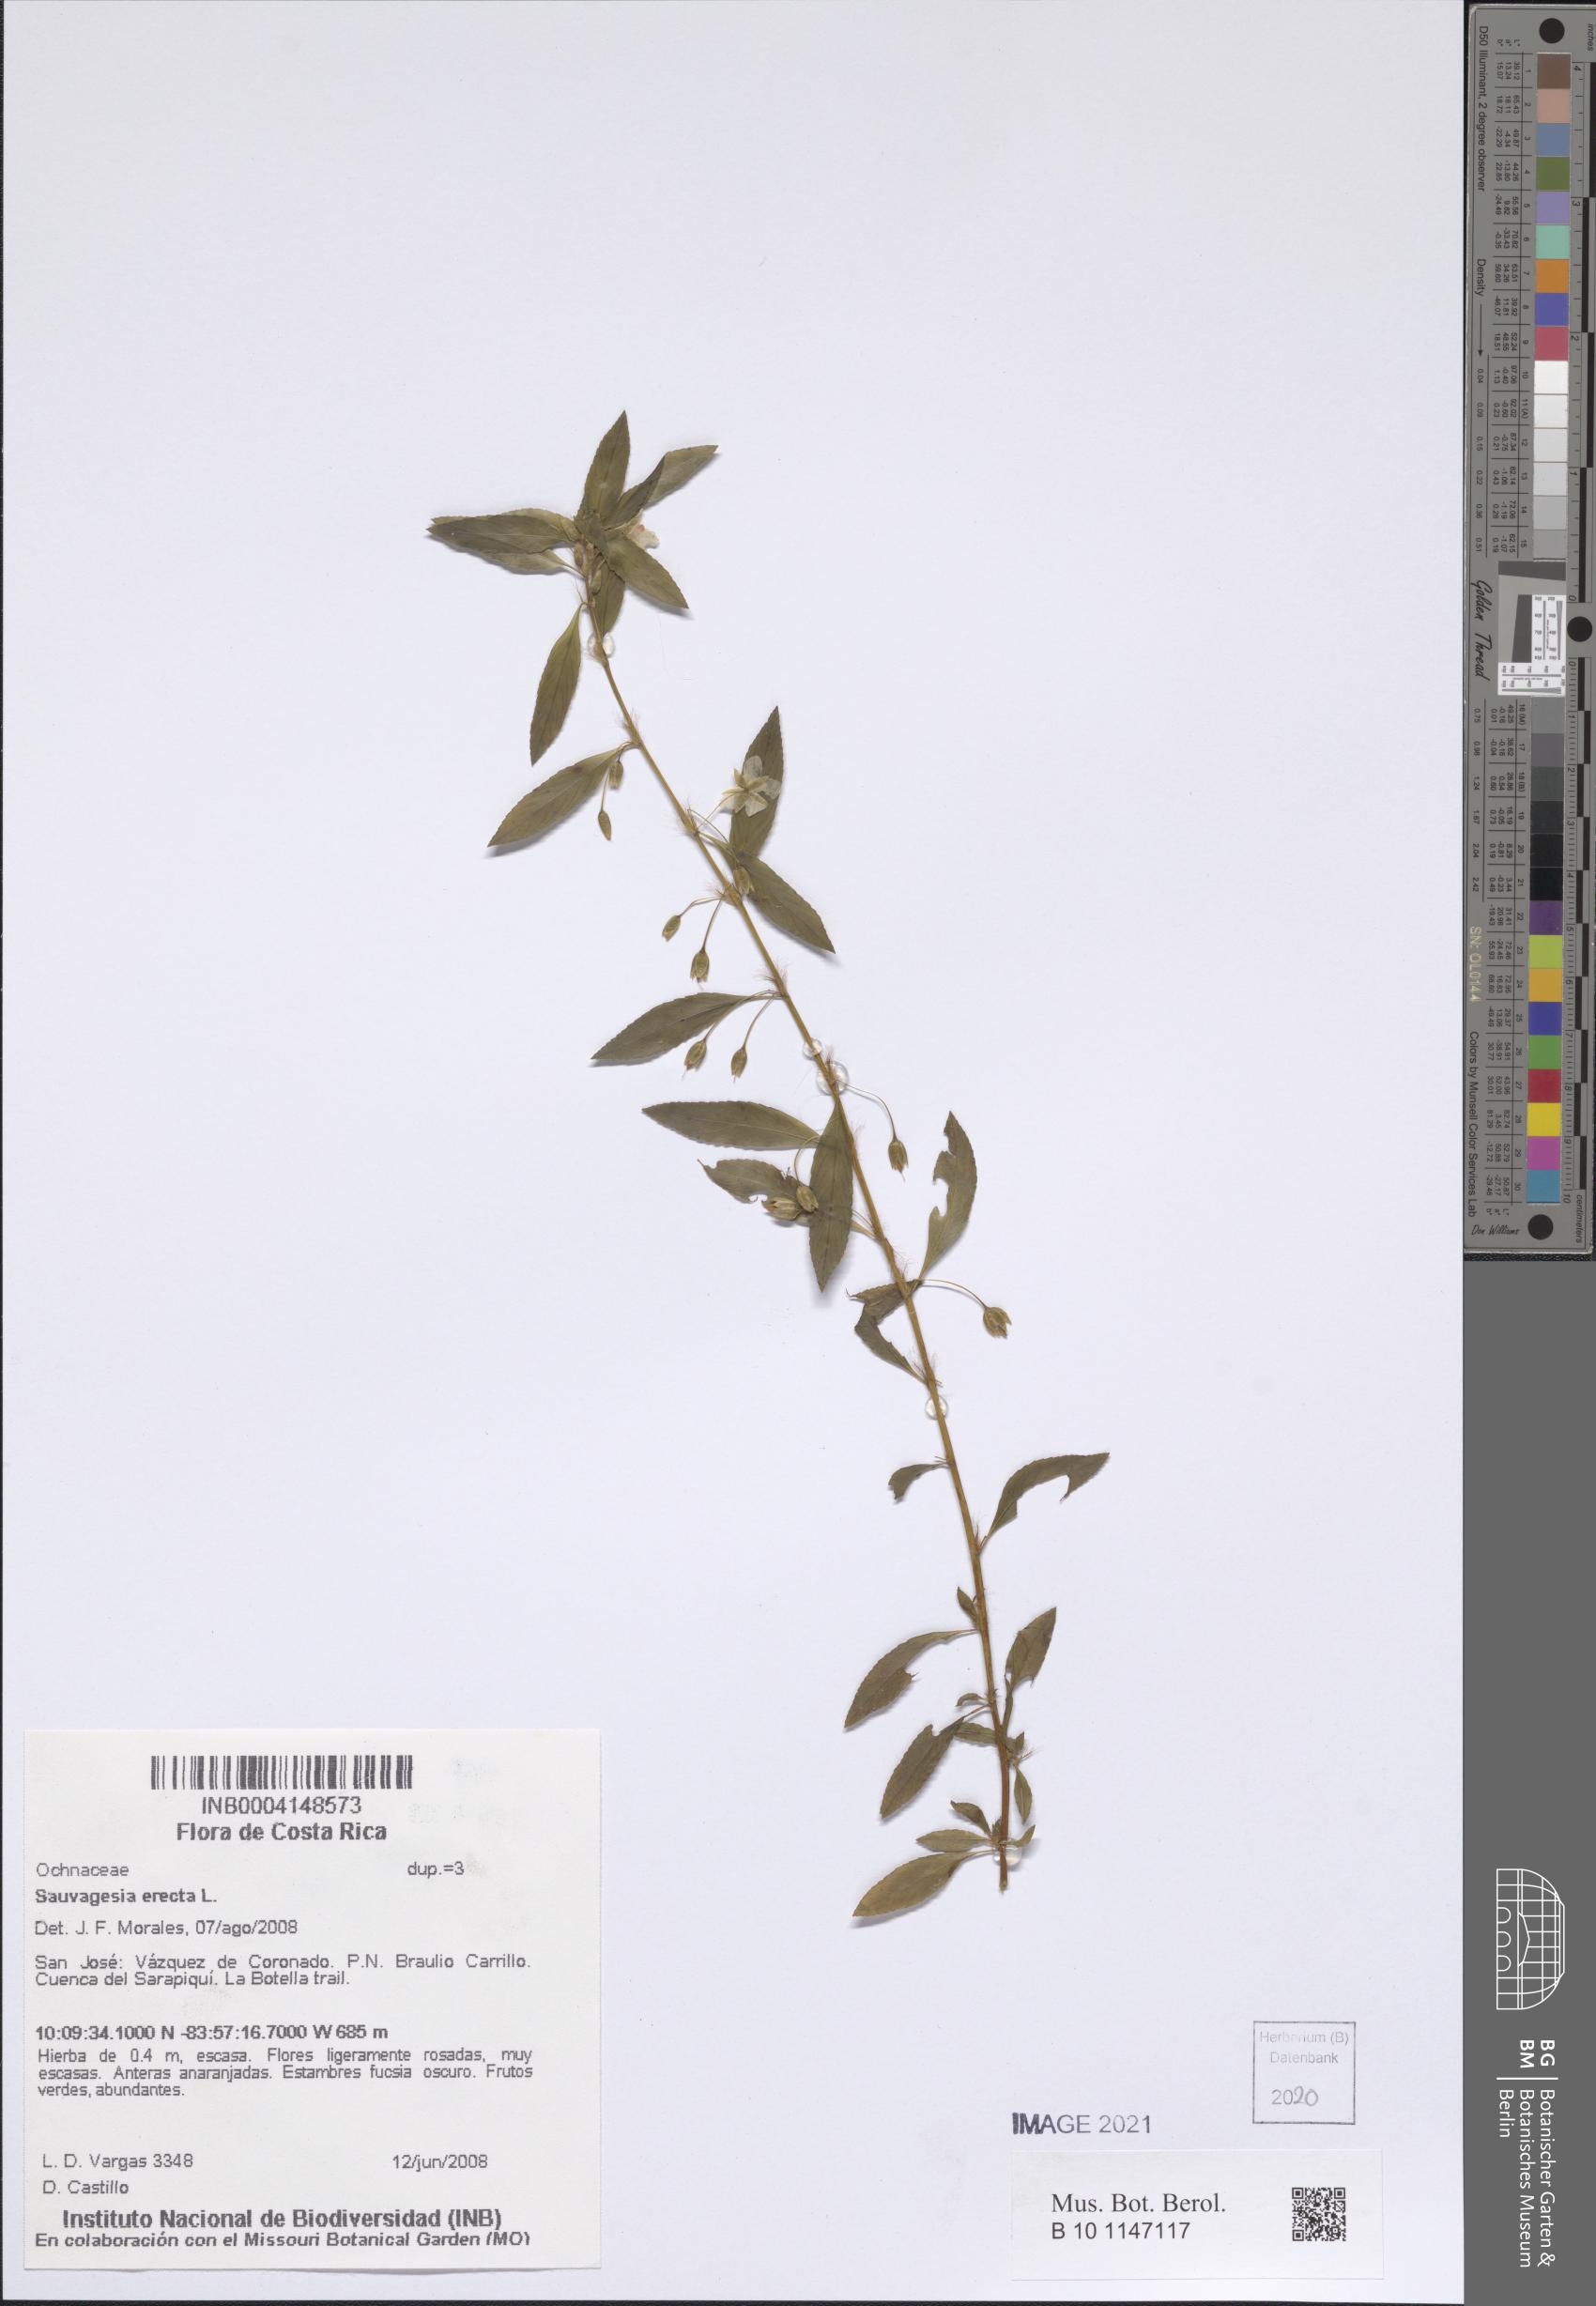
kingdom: Plantae
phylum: Tracheophyta
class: Magnoliopsida
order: Malpighiales
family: Ochnaceae
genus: Sauvagesia
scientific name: Sauvagesia erecta
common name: Creole tea
